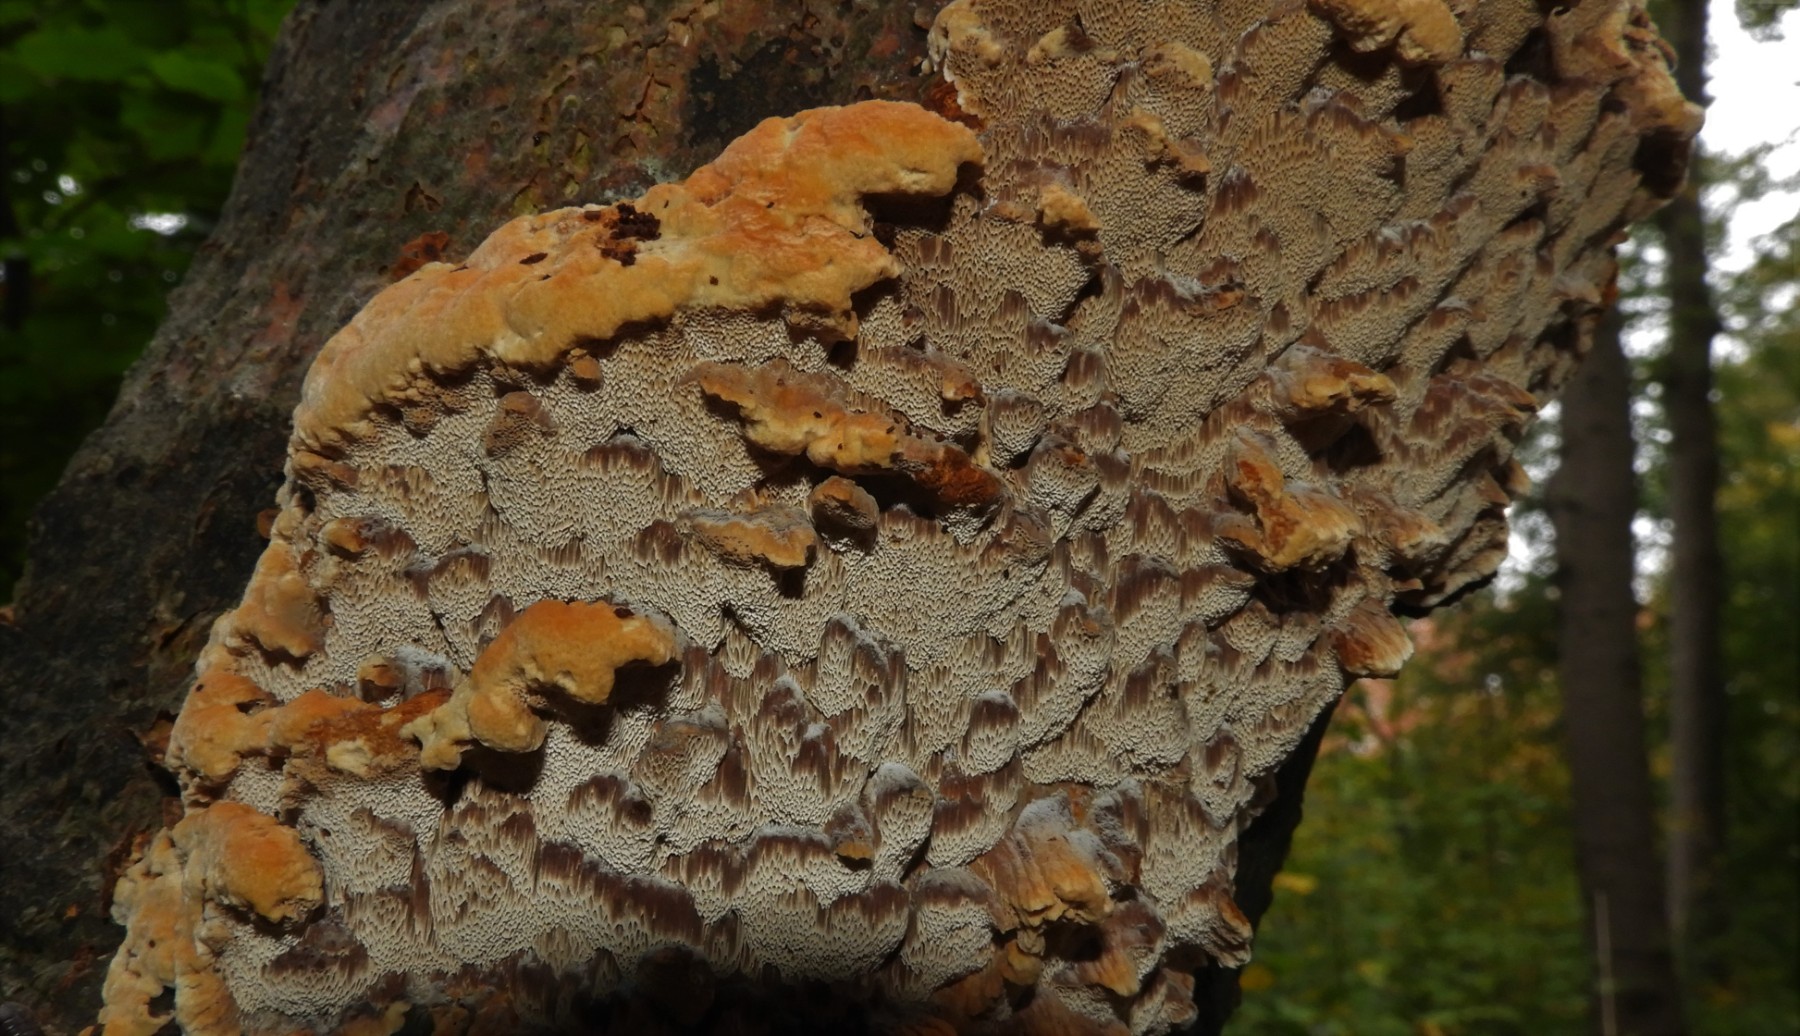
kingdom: Fungi
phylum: Basidiomycota
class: Agaricomycetes
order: Hymenochaetales
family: Hymenochaetaceae
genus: Mensularia
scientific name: Mensularia nodulosa
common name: bøge-spejlporesvamp
